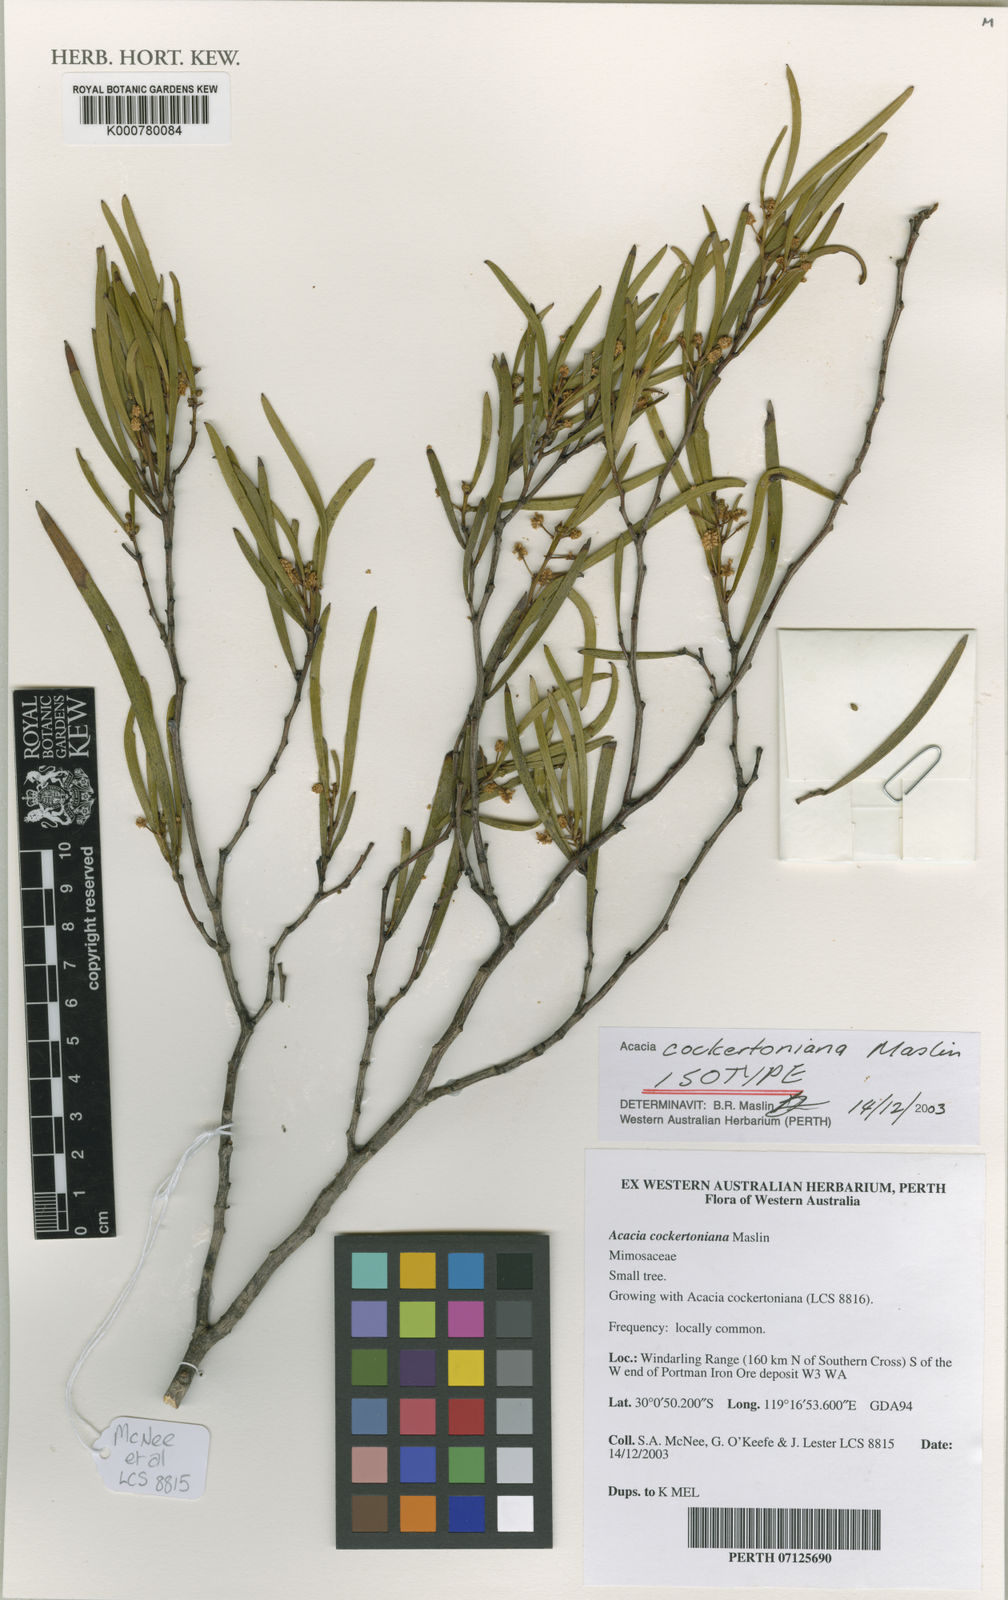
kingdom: Plantae
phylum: Tracheophyta
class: Magnoliopsida
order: Fabales
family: Fabaceae
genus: Acacia
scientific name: Acacia cockertoniana
